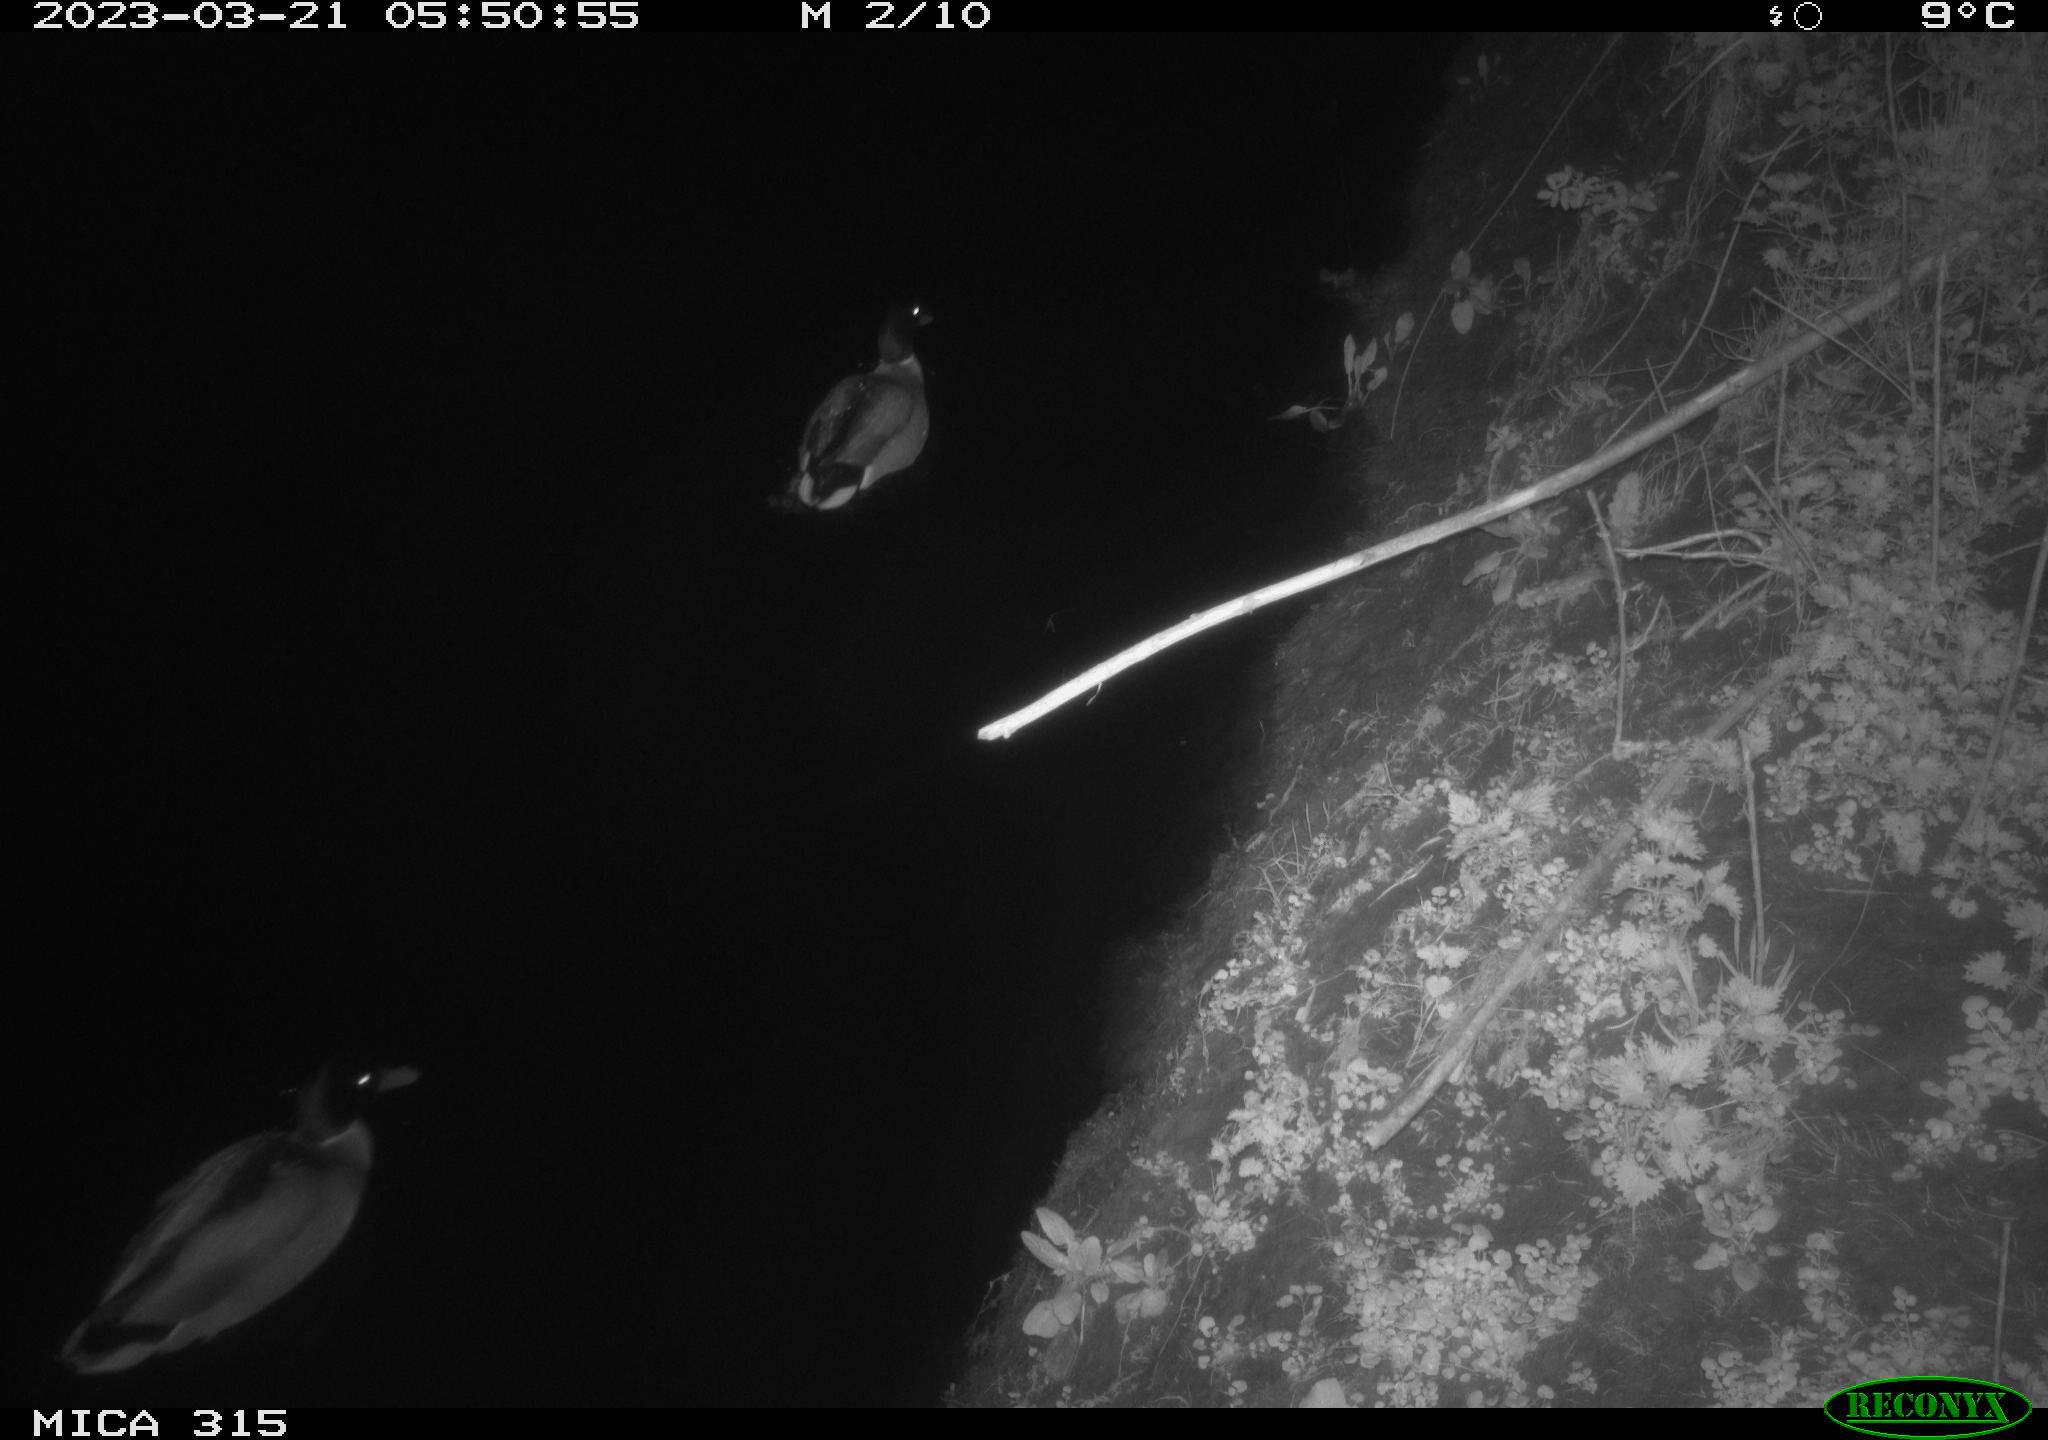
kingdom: Animalia
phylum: Chordata
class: Aves
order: Anseriformes
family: Anatidae
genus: Anas
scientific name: Anas
